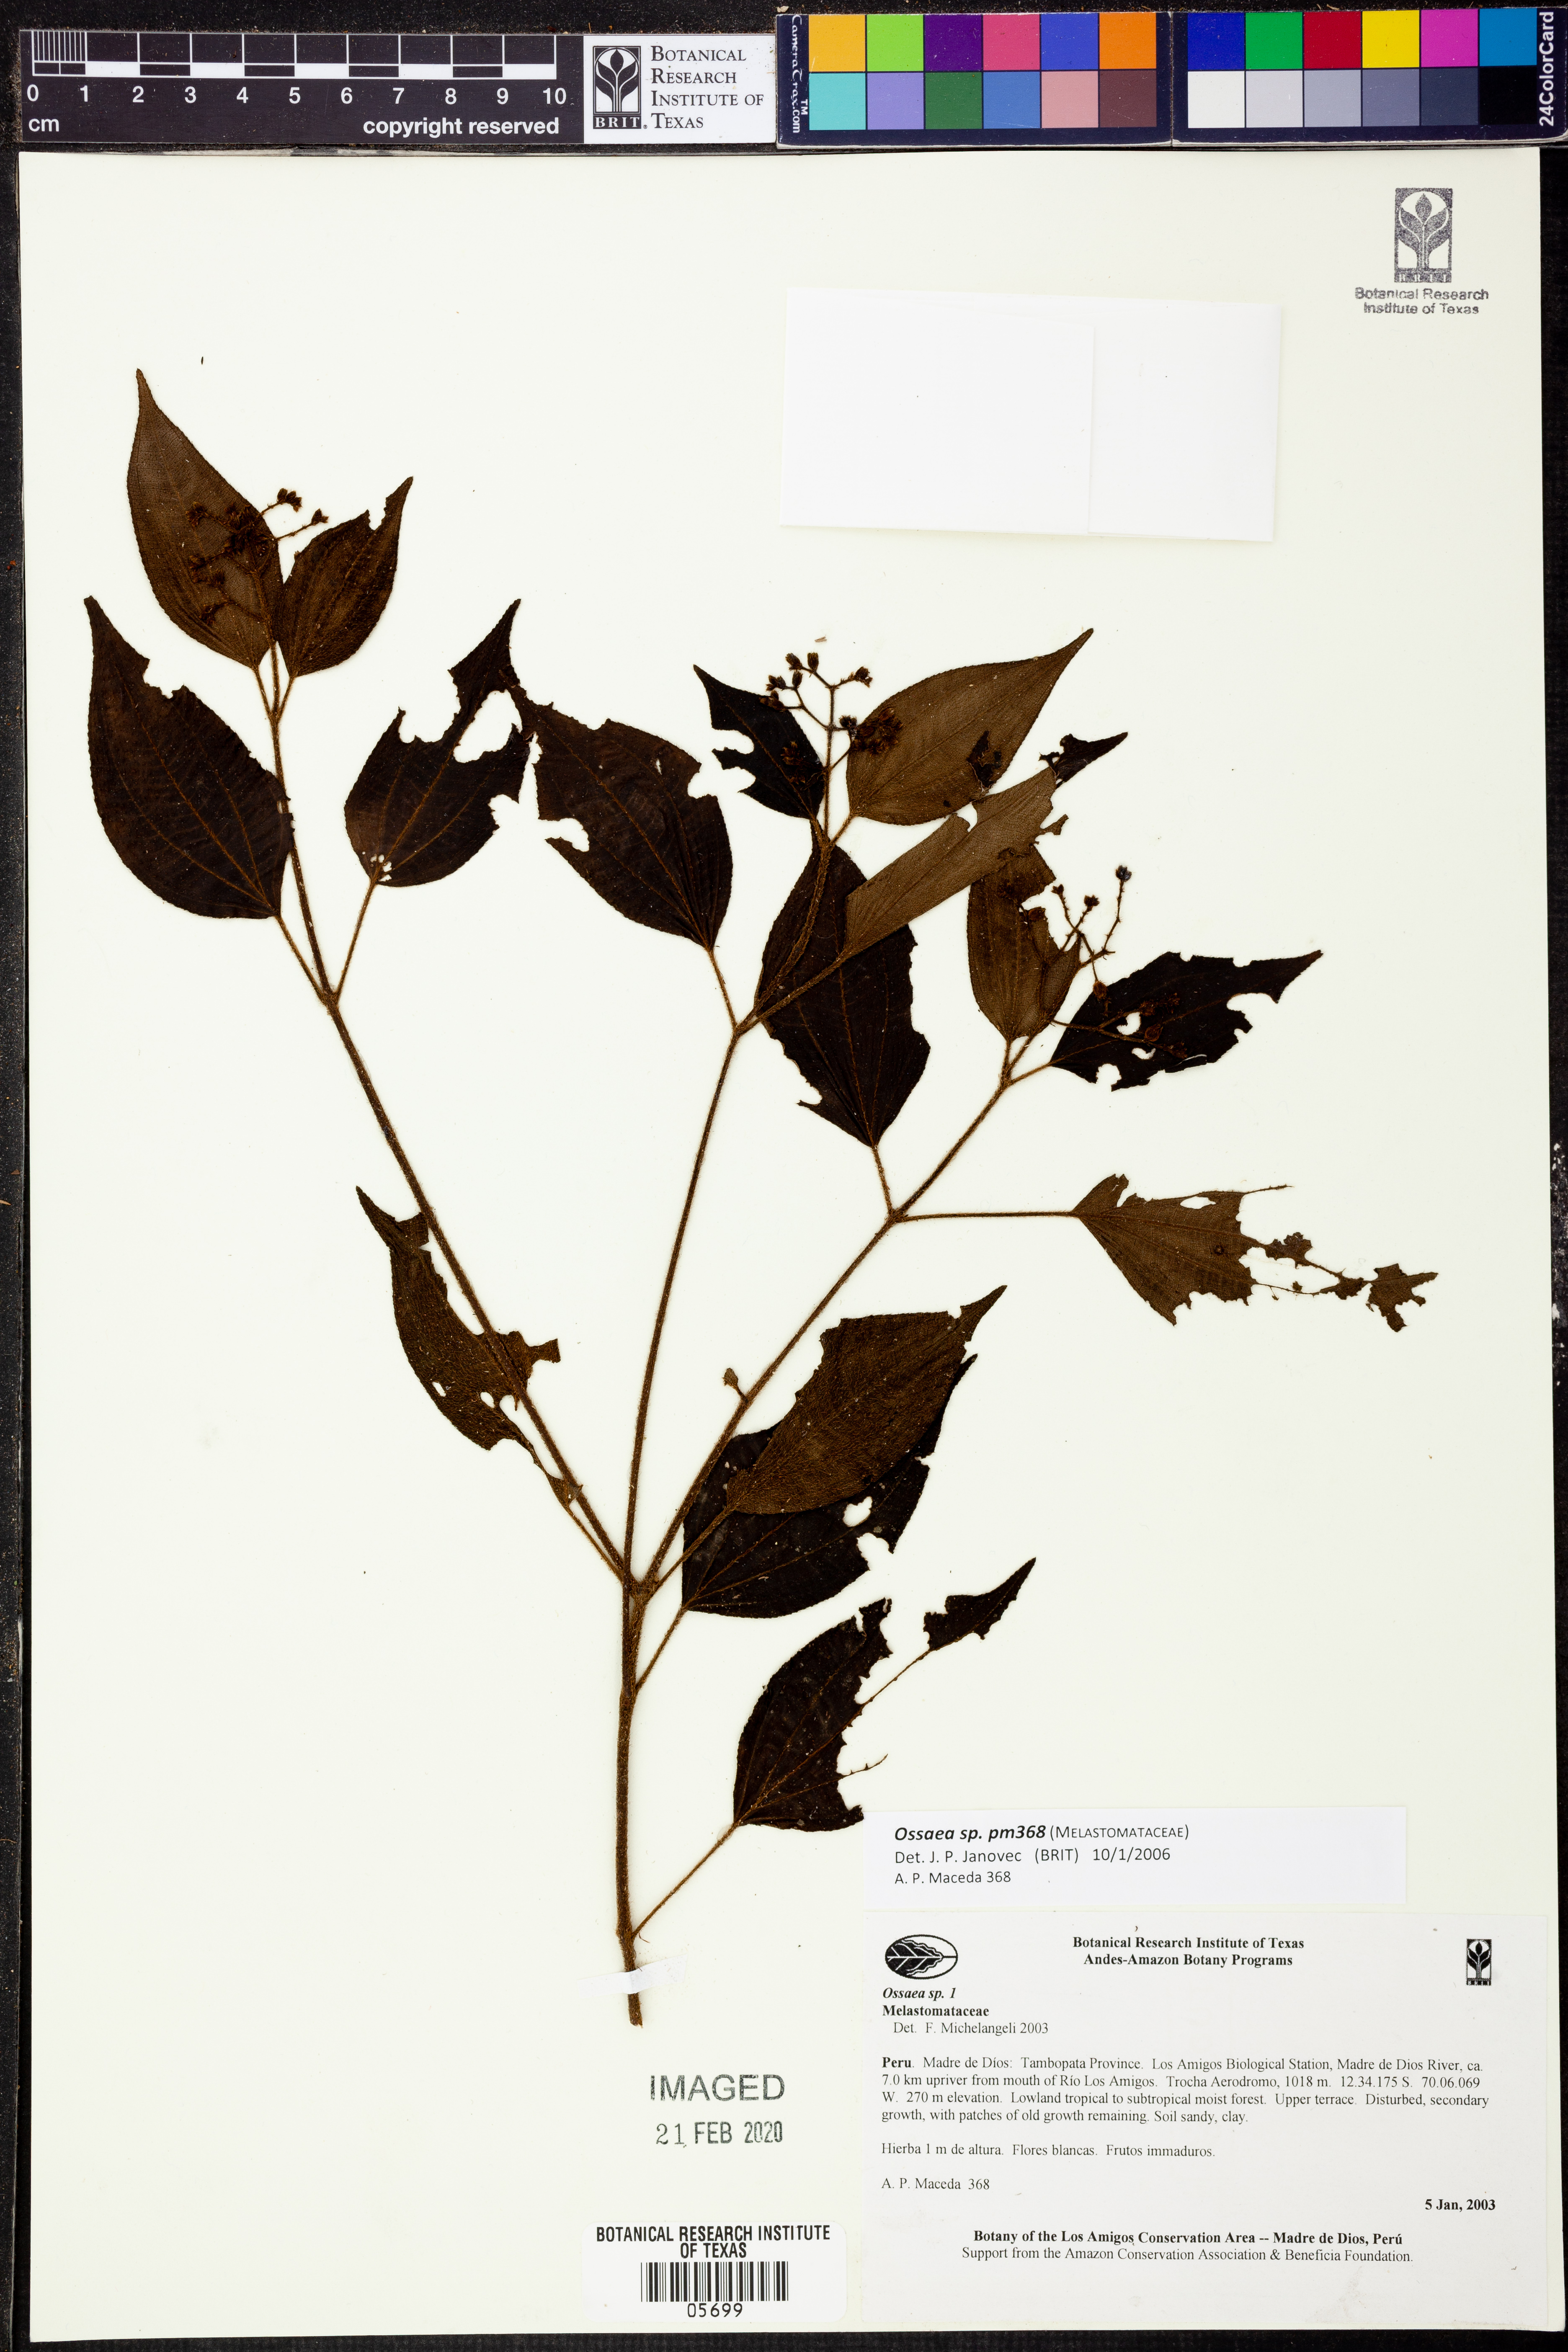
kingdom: Plantae
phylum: Tracheophyta
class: Magnoliopsida
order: Myrtales
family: Melastomataceae
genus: Ossaea
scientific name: Ossaea
